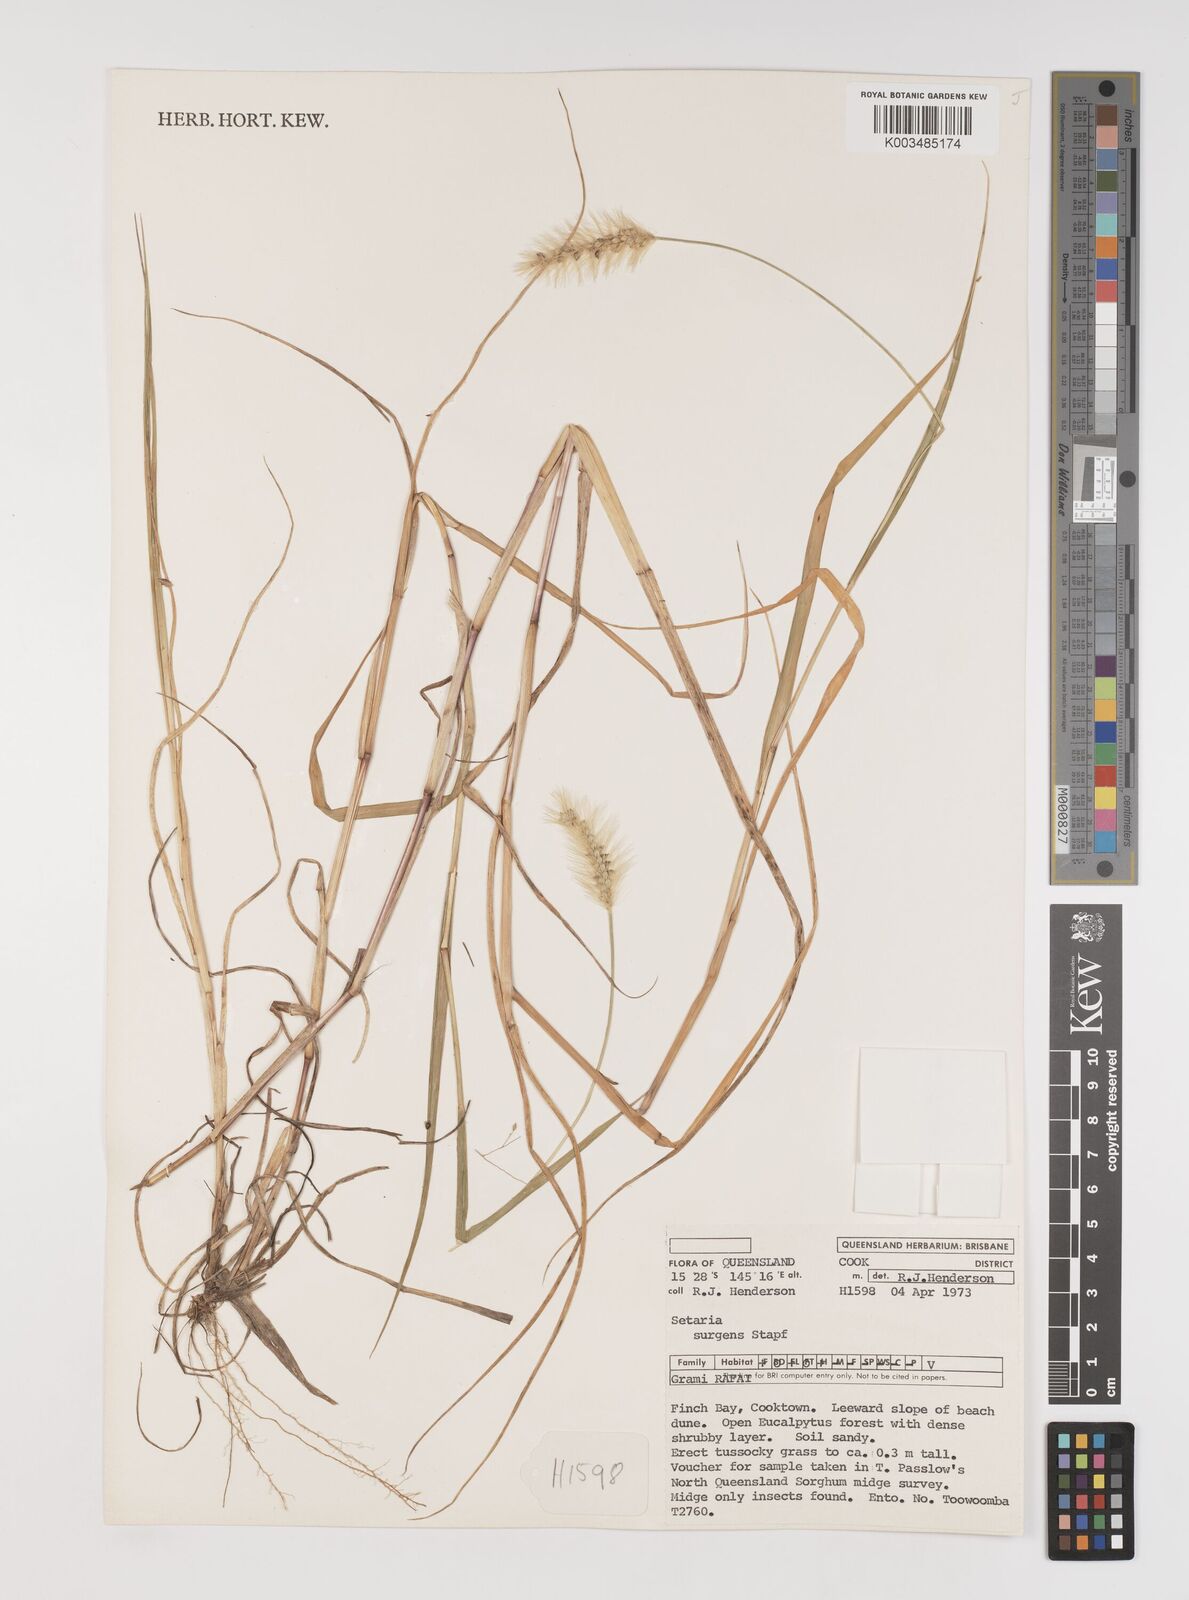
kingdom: Plantae
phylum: Tracheophyta
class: Liliopsida
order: Poales
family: Poaceae
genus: Setaria
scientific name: Setaria apiculata
